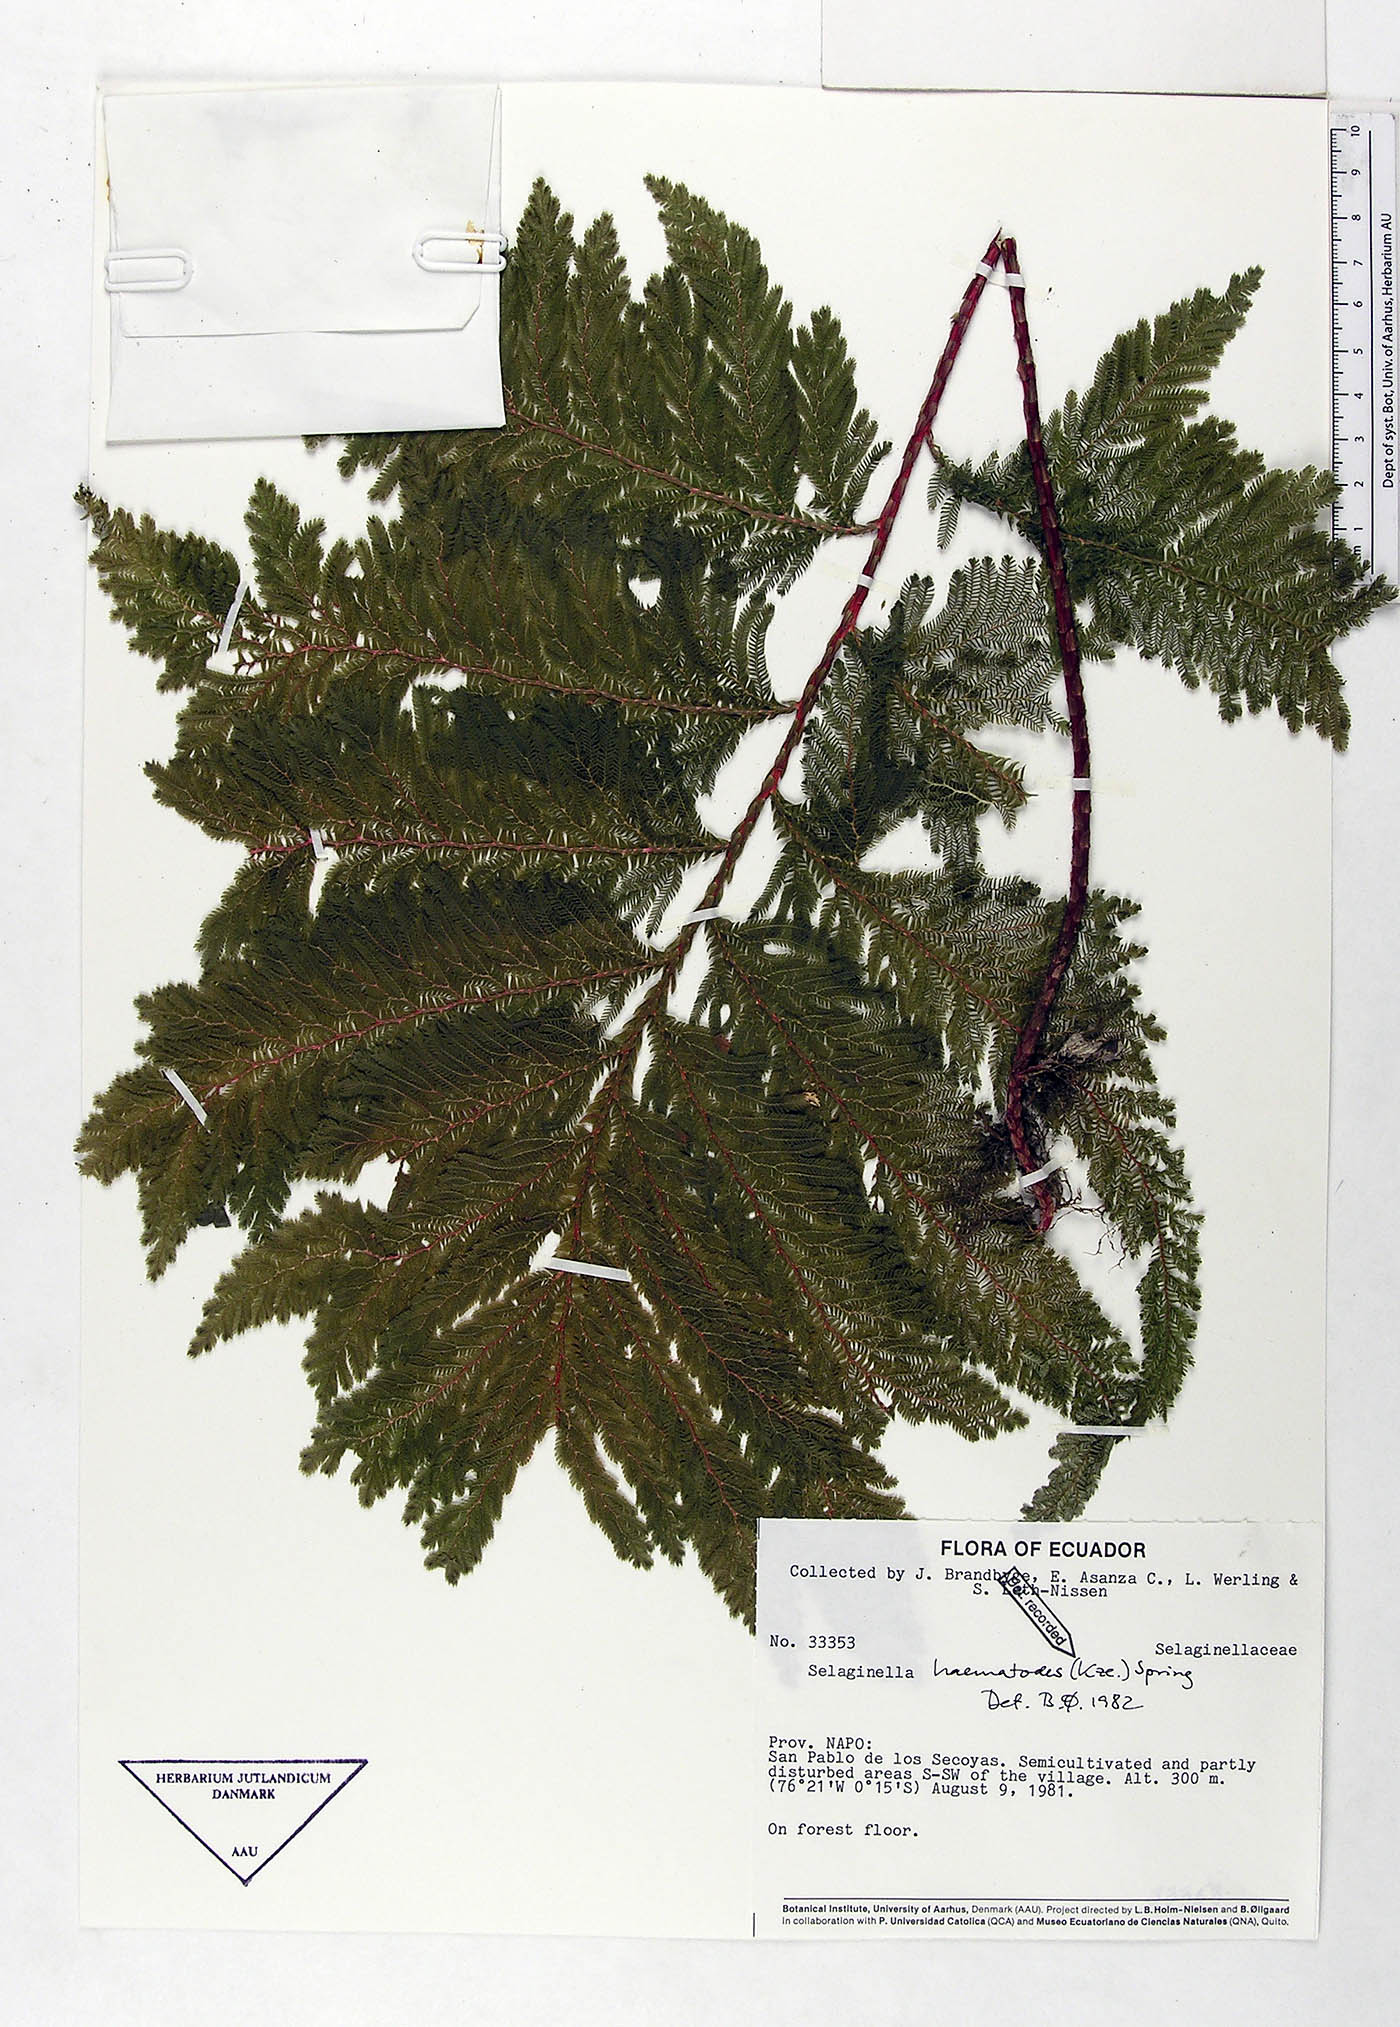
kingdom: Plantae
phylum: Tracheophyta
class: Lycopodiopsida
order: Selaginellales
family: Selaginellaceae
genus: Selaginella
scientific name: Selaginella haematodes
